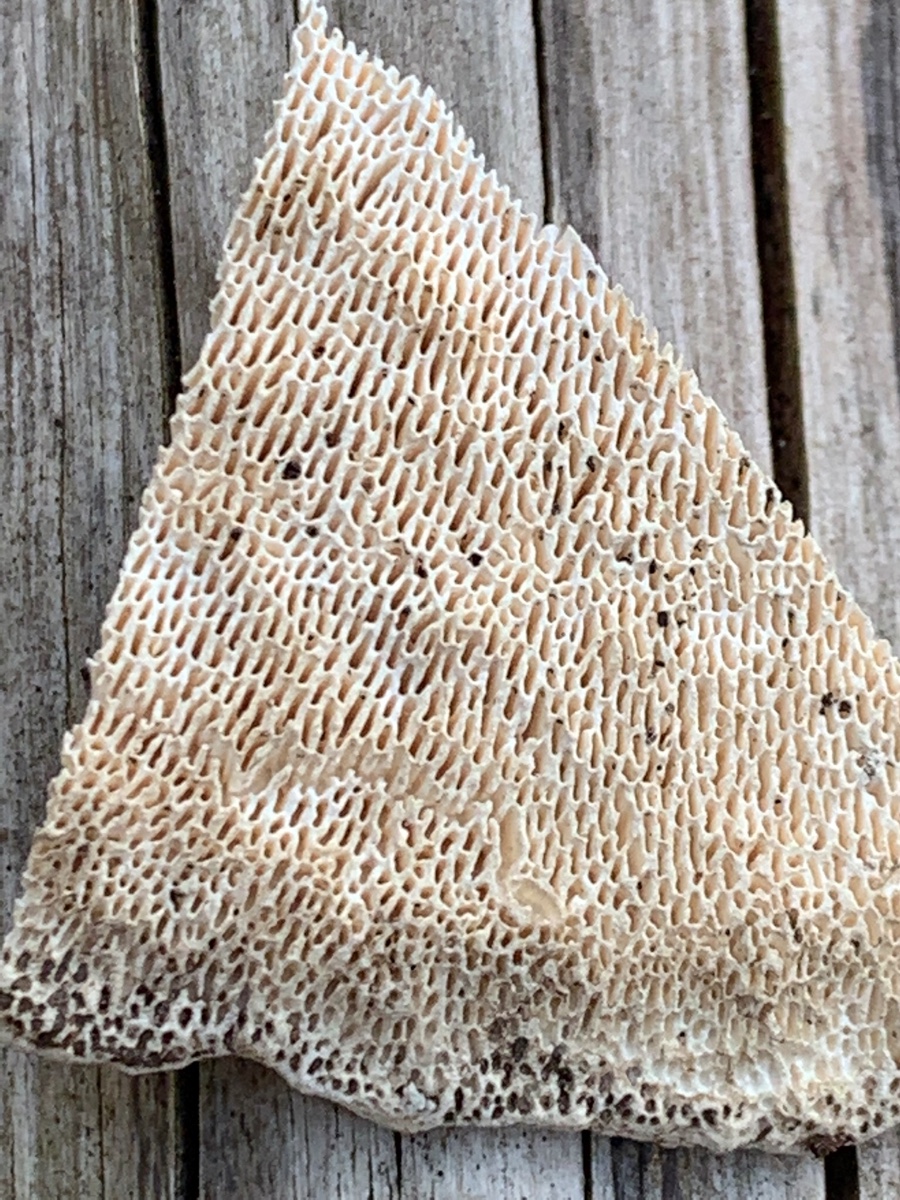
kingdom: Fungi
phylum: Basidiomycota
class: Agaricomycetes
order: Polyporales
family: Polyporaceae
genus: Trametes
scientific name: Trametes gibbosa
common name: puklet læderporesvamp
